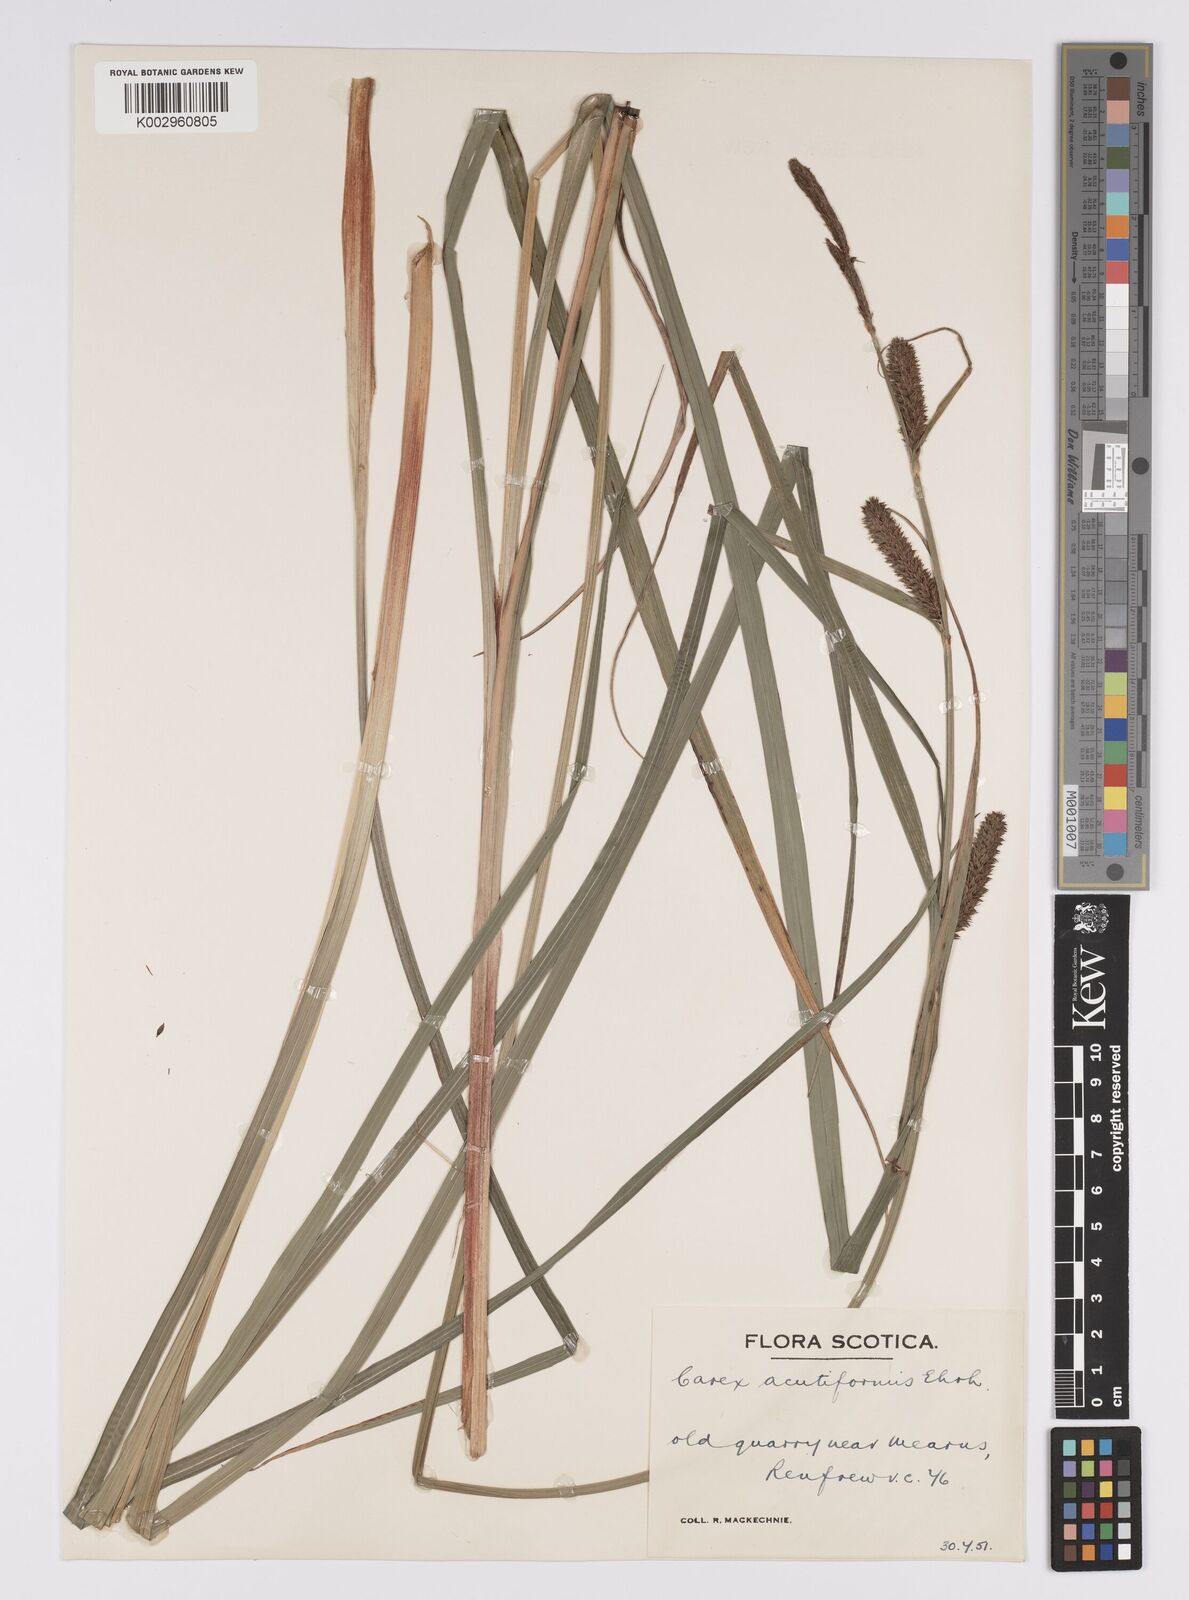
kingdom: Plantae
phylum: Tracheophyta
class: Liliopsida
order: Poales
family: Cyperaceae
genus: Carex
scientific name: Carex acutiformis
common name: Lesser pond-sedge
